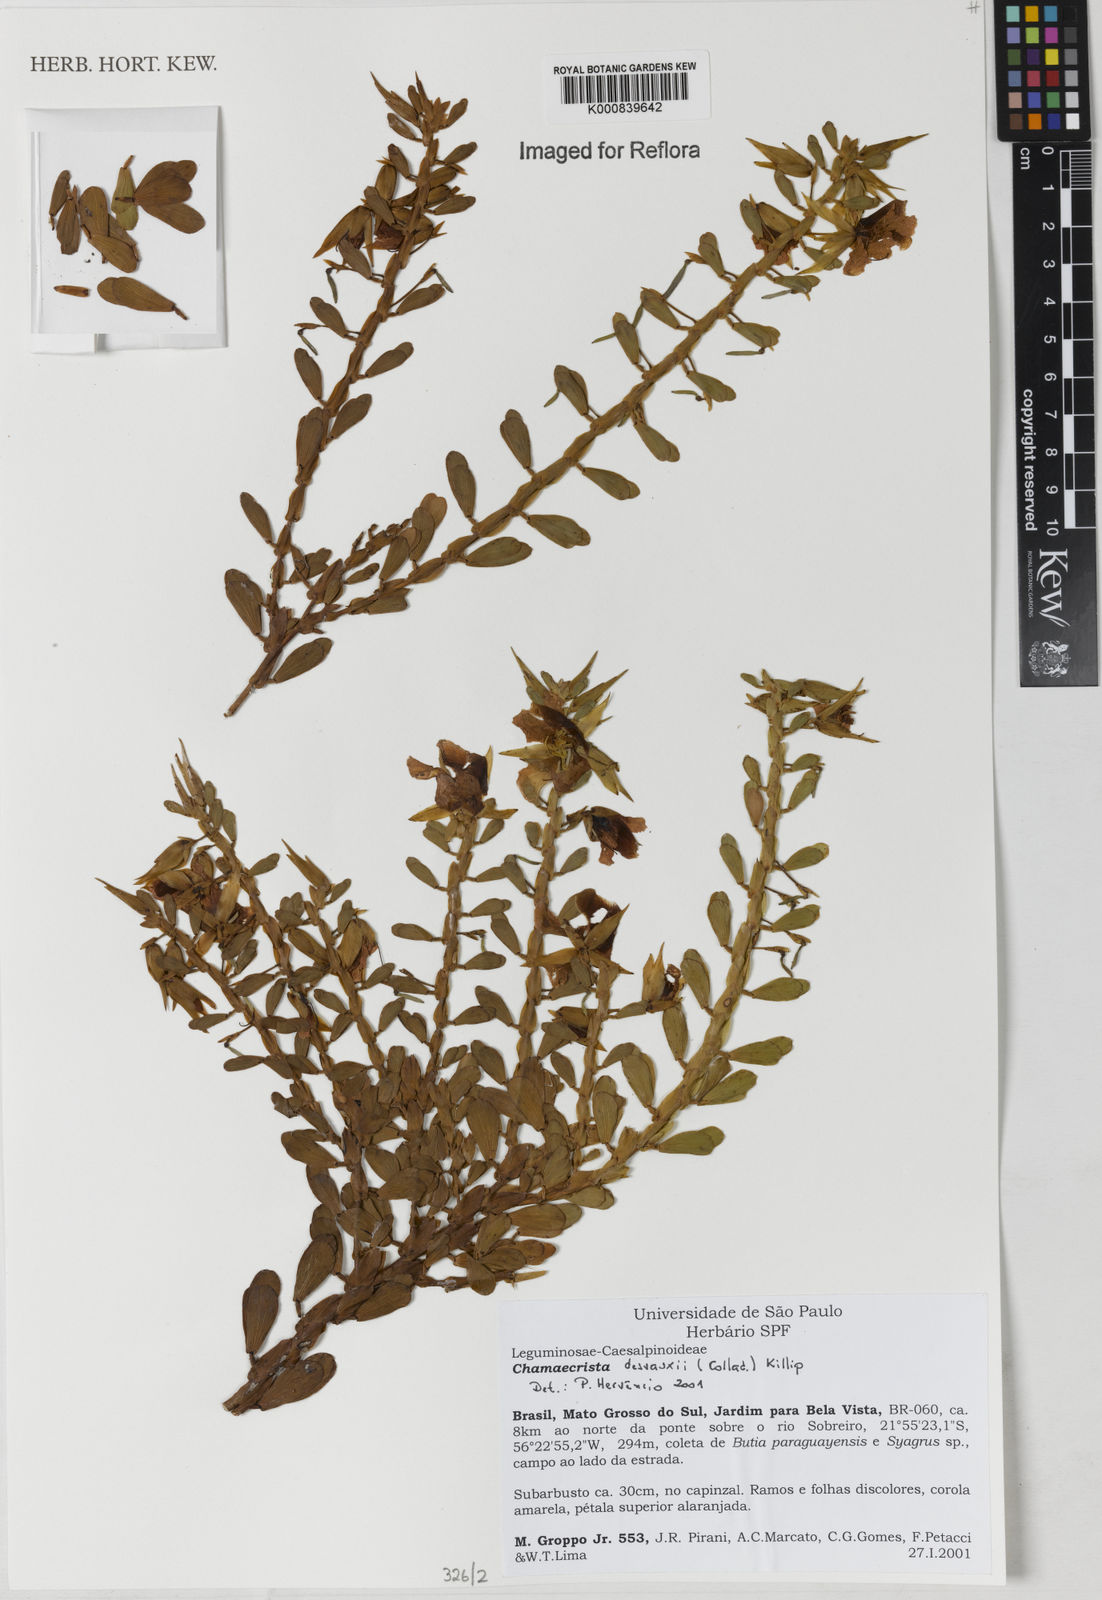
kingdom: Plantae
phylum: Tracheophyta
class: Magnoliopsida
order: Fabales
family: Fabaceae
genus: Chamaecrista
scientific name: Chamaecrista desvauxii
